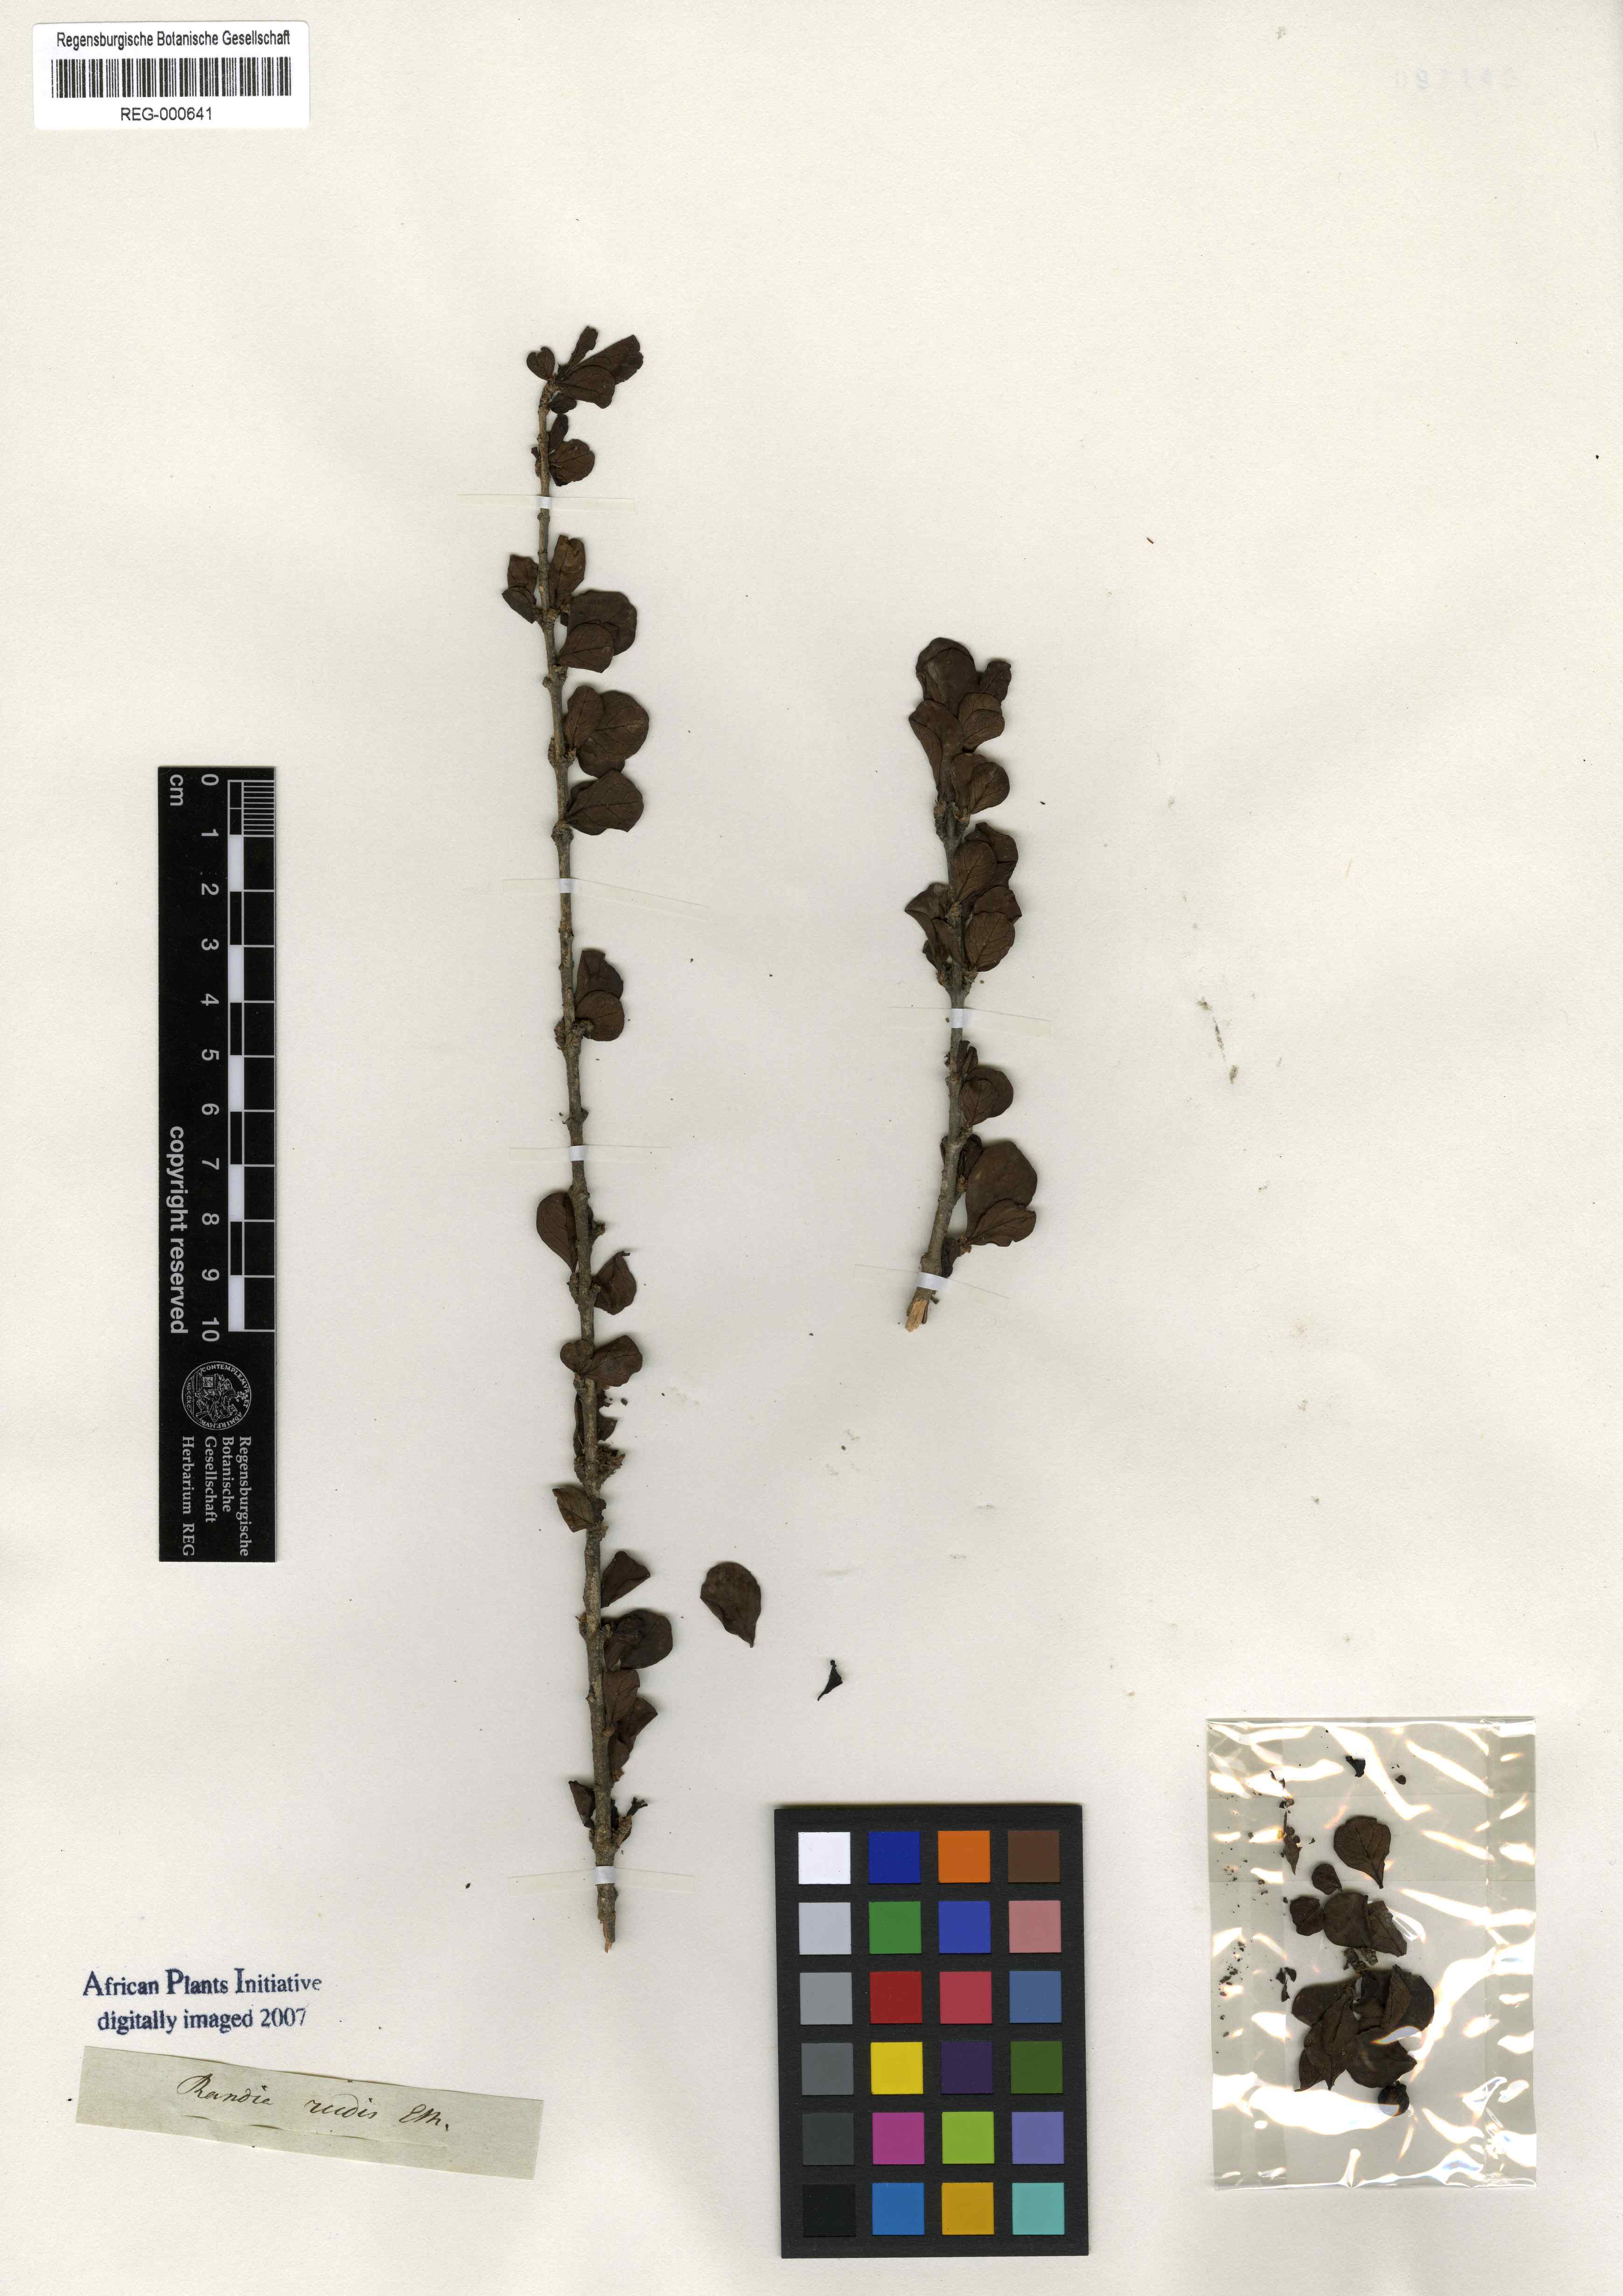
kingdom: Plantae
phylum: Tracheophyta
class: Magnoliopsida
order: Gentianales
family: Rubiaceae
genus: Coddia
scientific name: Coddia rudis
